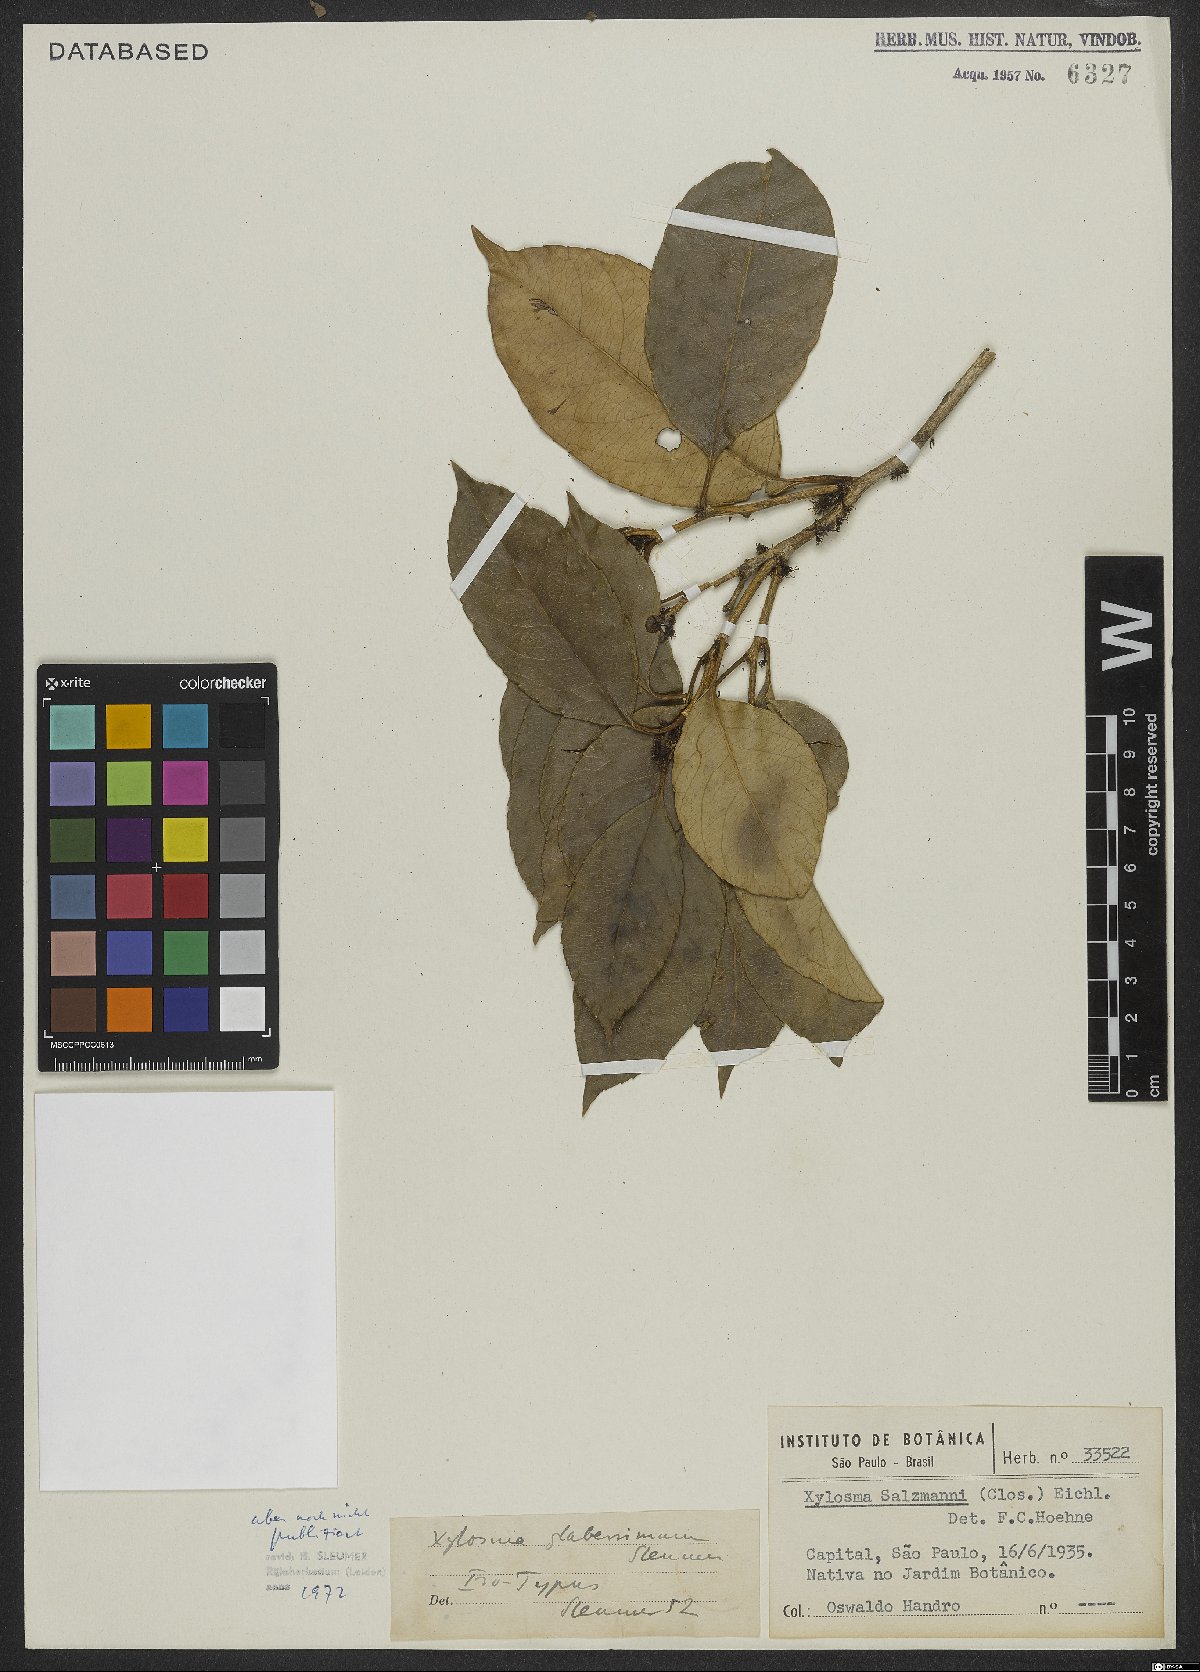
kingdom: Plantae
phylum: Tracheophyta
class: Magnoliopsida
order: Malpighiales
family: Salicaceae
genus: Xylosma
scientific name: Xylosma glaberrima
